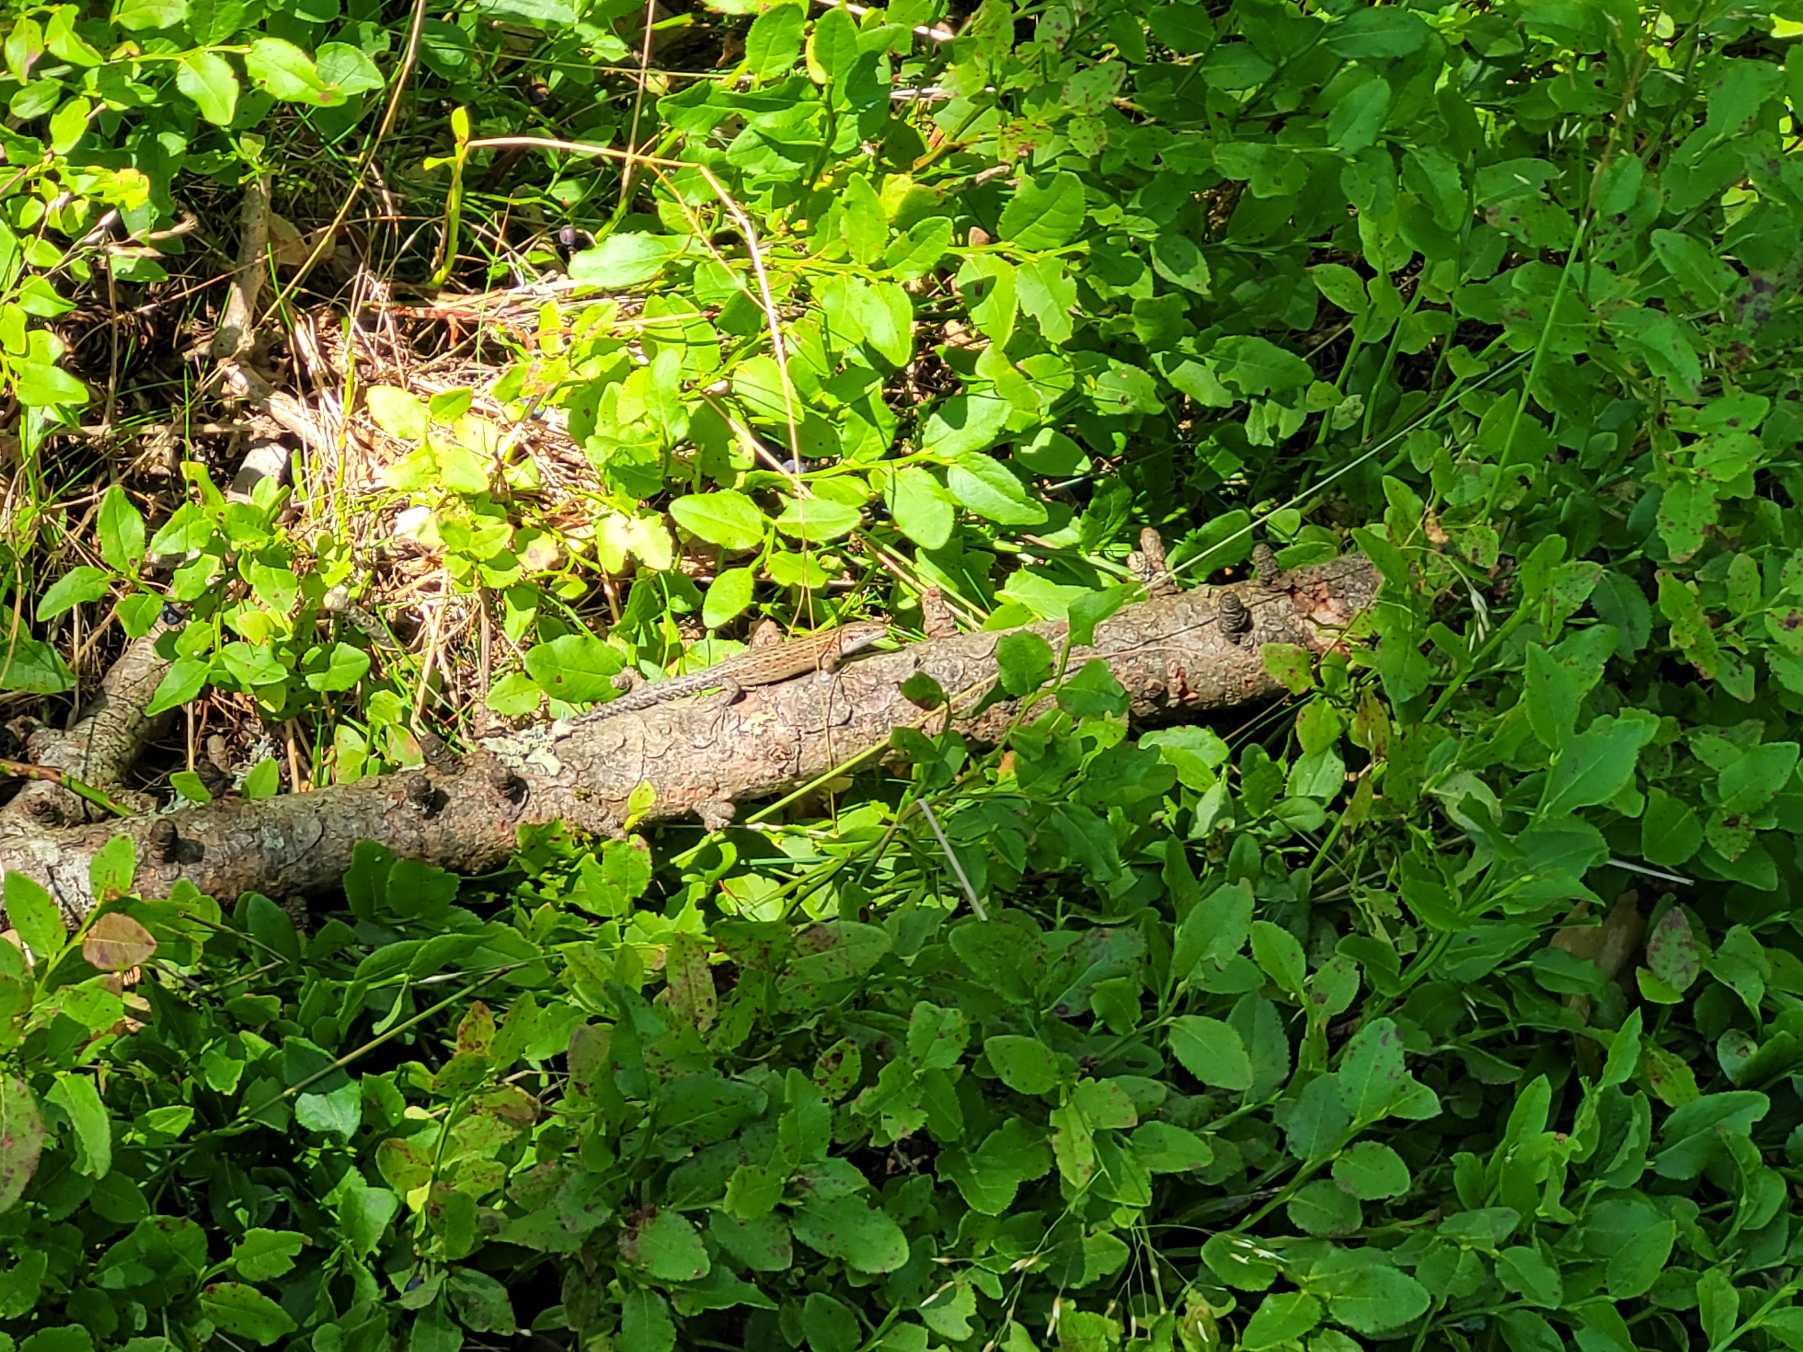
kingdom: Animalia
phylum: Chordata
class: Squamata
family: Lacertidae
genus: Zootoca
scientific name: Zootoca vivipara
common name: Skovfirben
